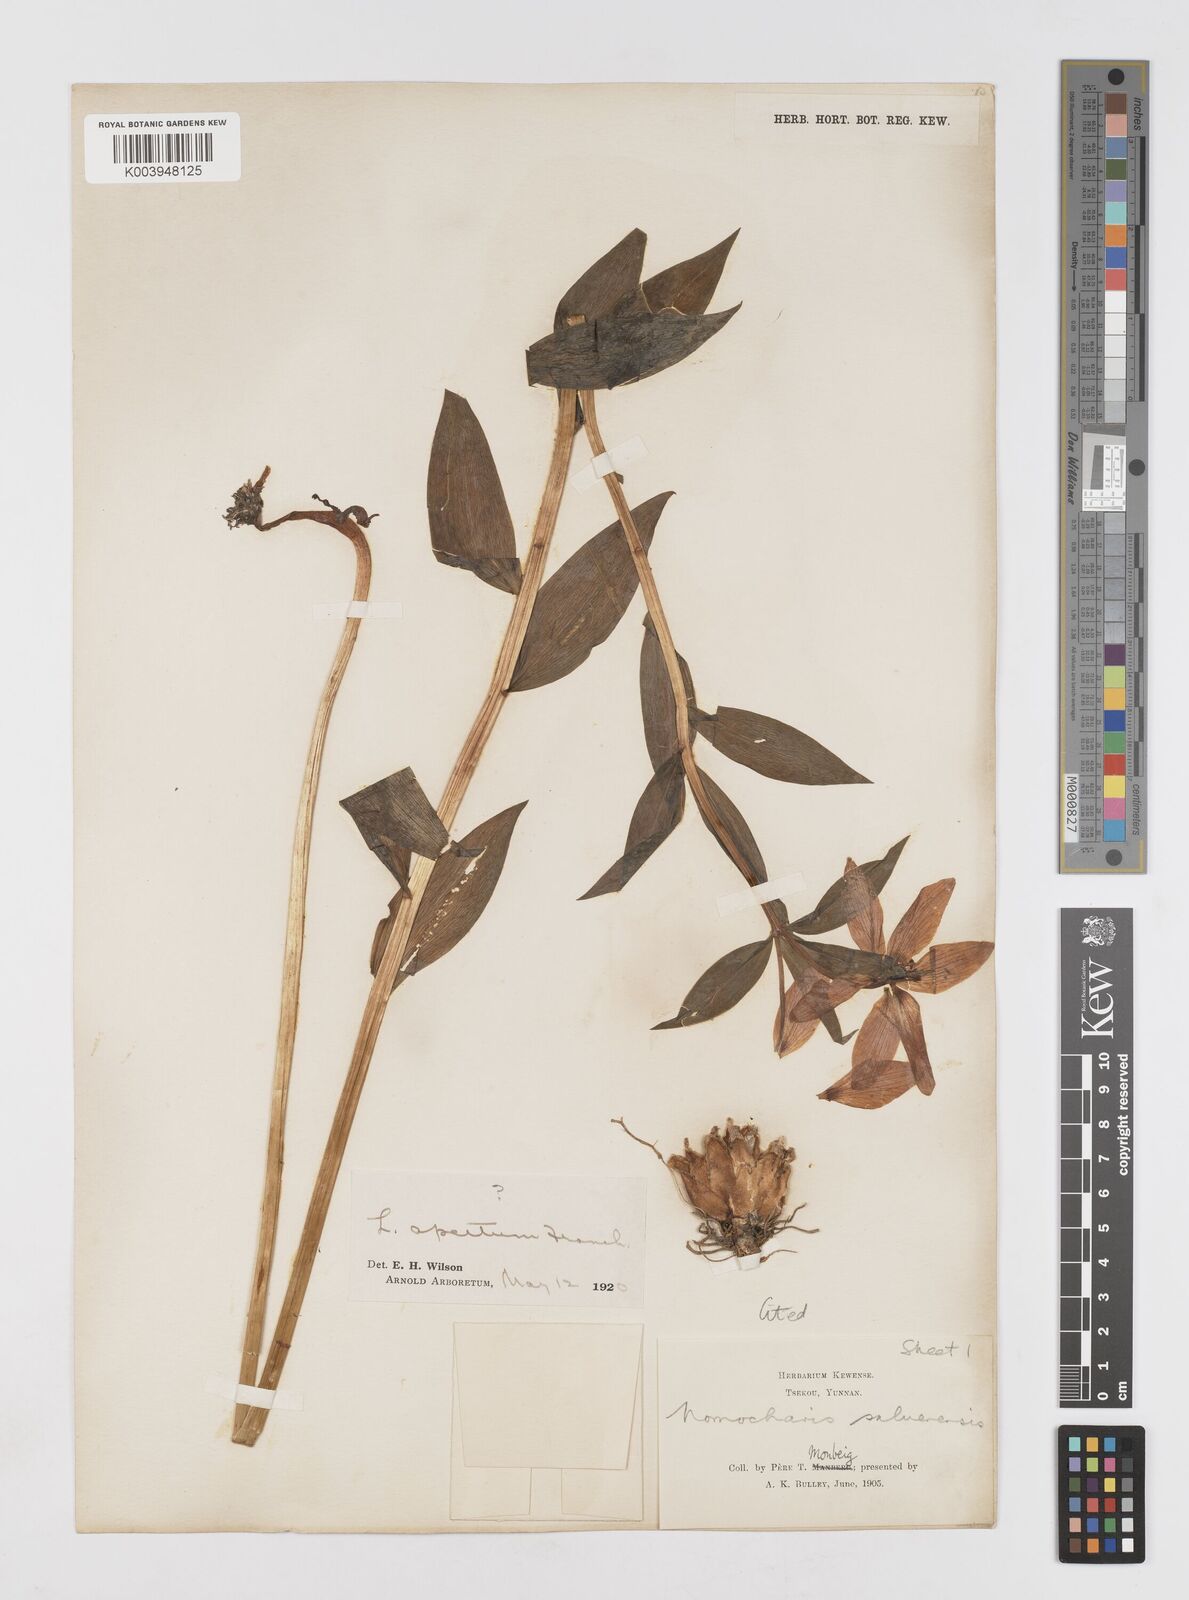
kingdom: Plantae
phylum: Tracheophyta
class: Liliopsida
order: Liliales
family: Liliaceae
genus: Lilium
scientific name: Lilium saluenense
